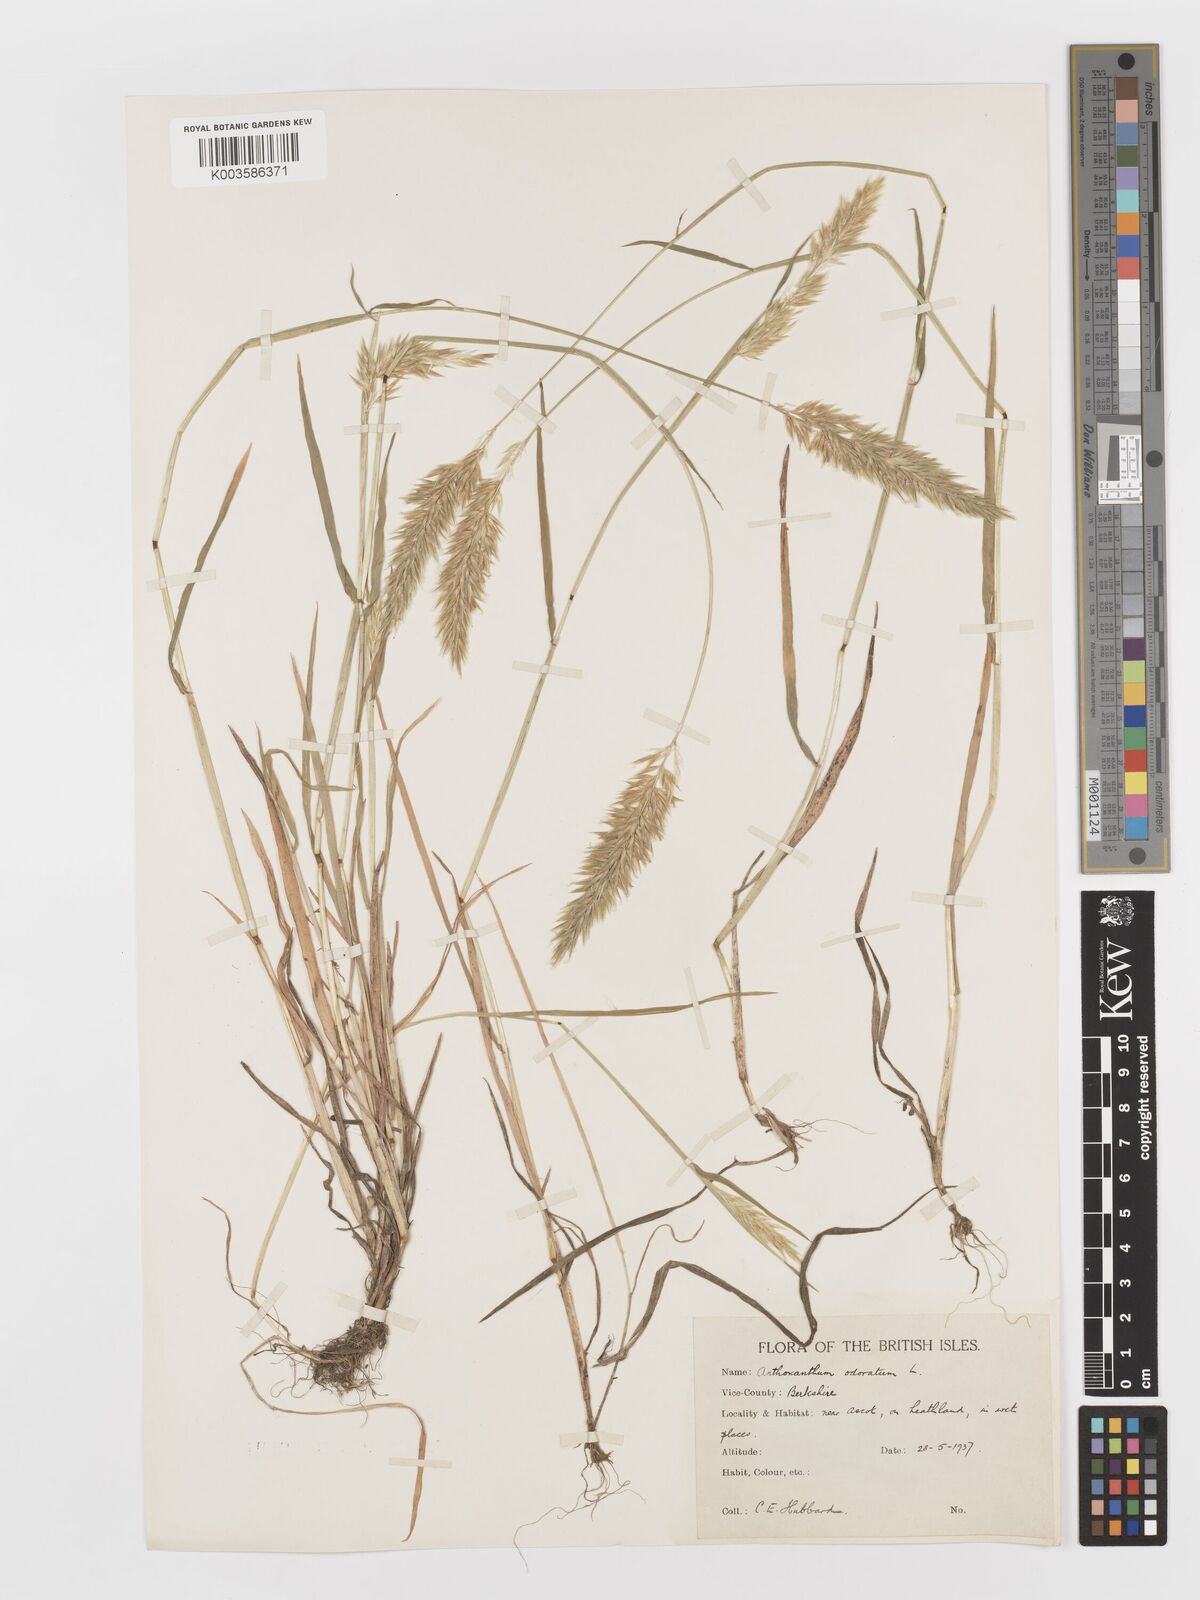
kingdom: Plantae
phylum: Tracheophyta
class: Liliopsida
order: Poales
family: Poaceae
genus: Anthoxanthum
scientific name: Anthoxanthum odoratum
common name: Sweet vernalgrass
